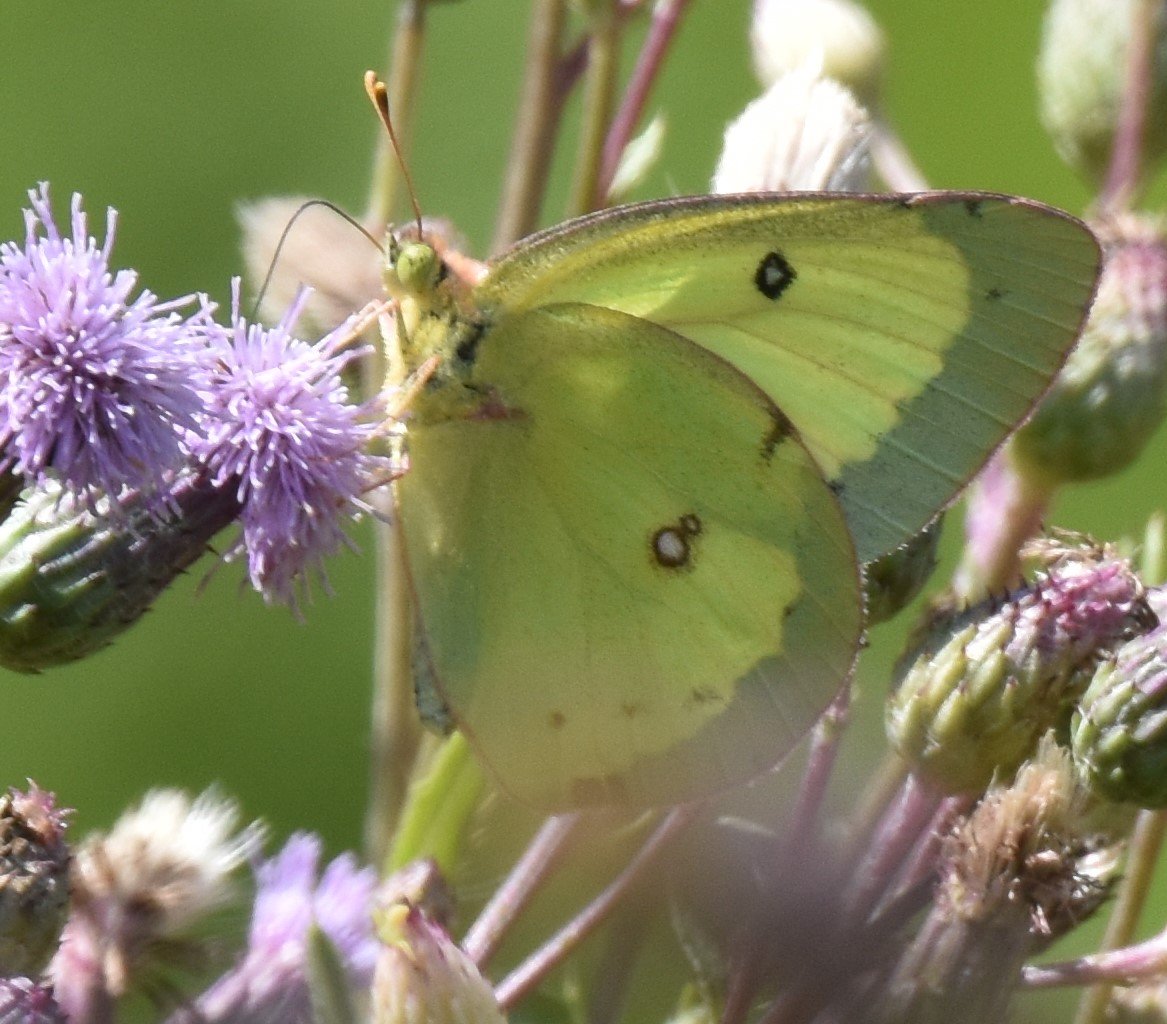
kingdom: Animalia
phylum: Arthropoda
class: Insecta
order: Lepidoptera
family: Pieridae
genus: Colias
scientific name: Colias philodice
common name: Clouded Sulphur
